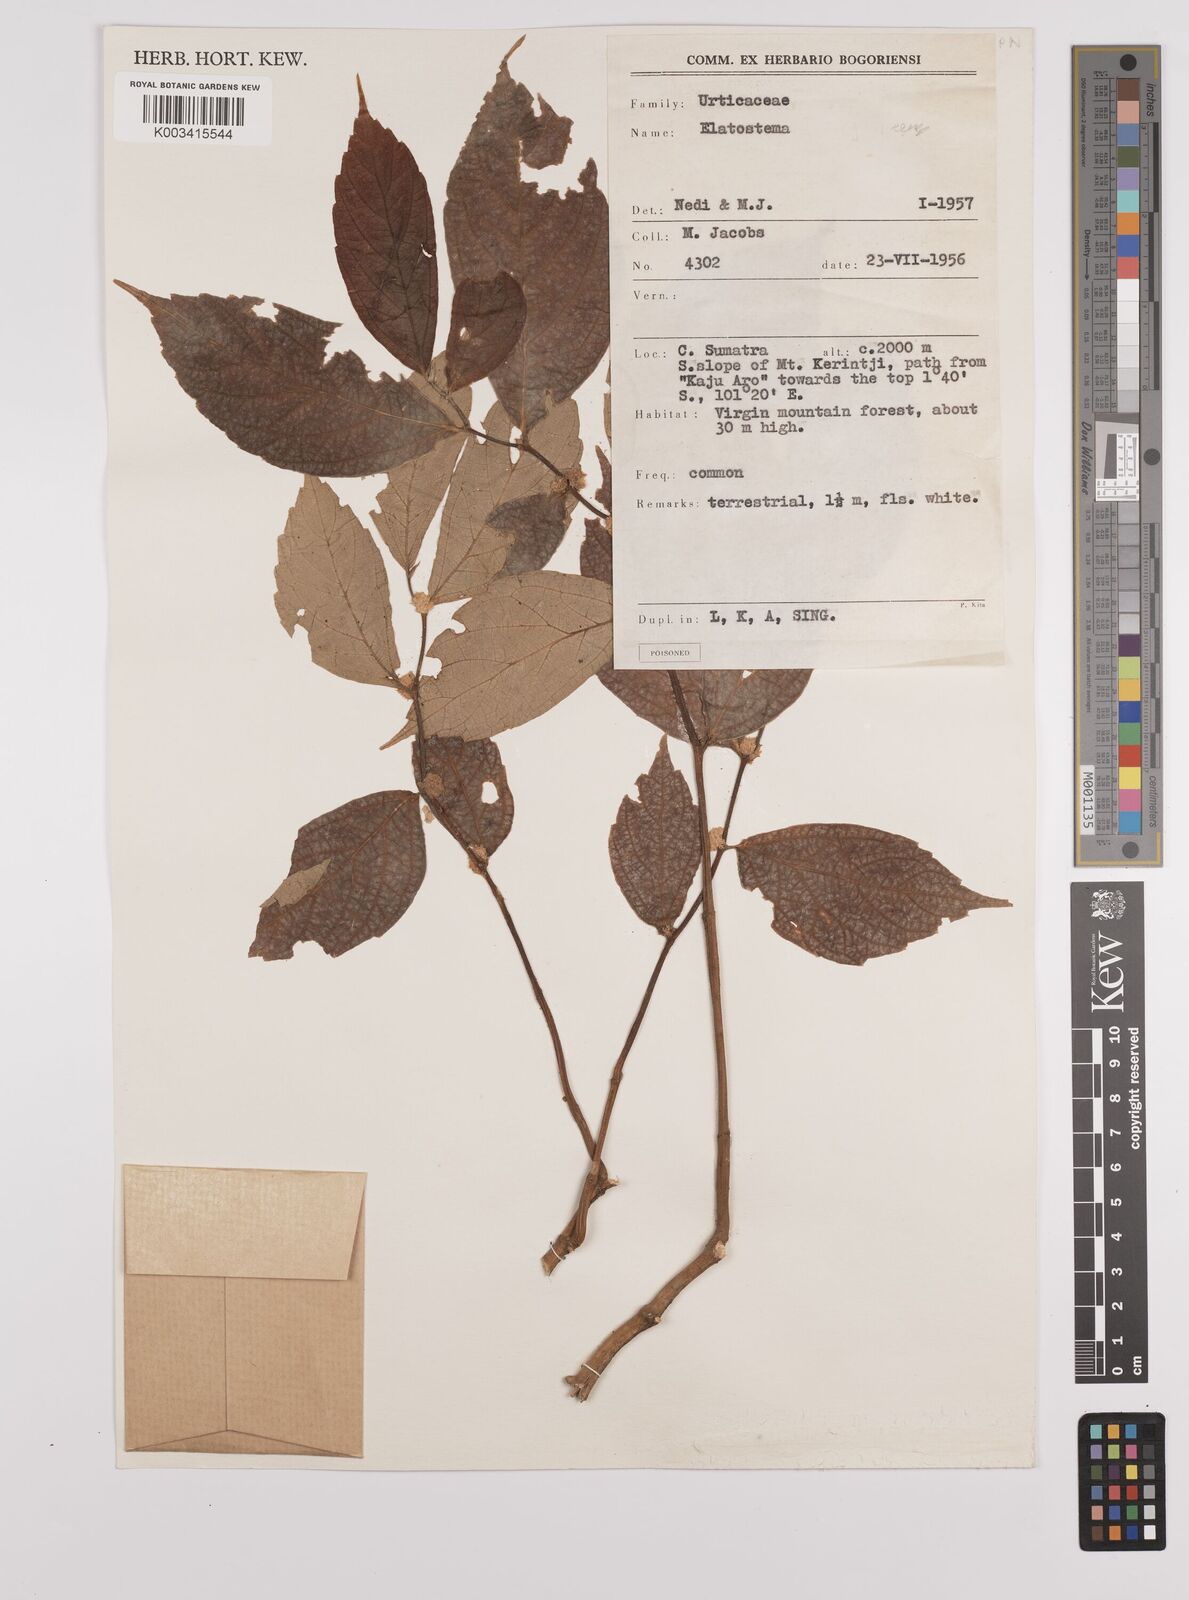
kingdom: Plantae
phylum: Tracheophyta
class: Magnoliopsida
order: Rosales
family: Urticaceae
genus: Elatostema
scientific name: Elatostema
